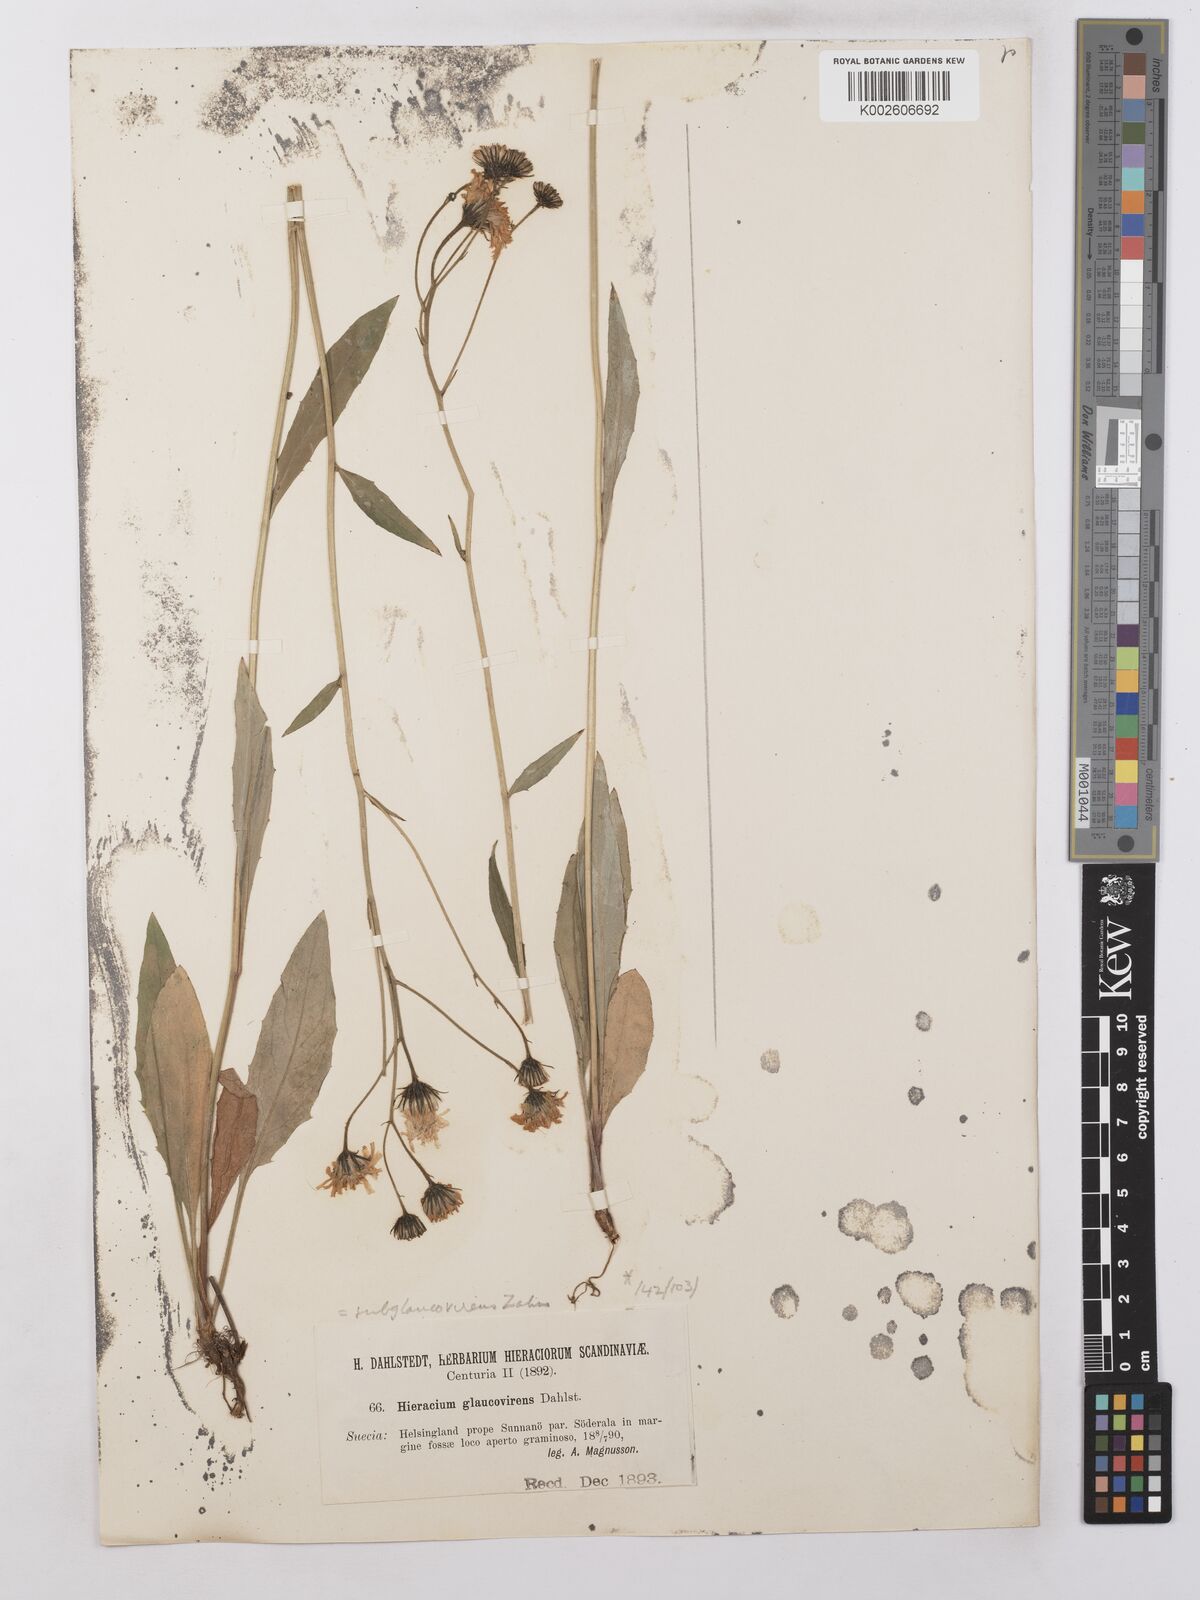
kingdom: Plantae
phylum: Tracheophyta
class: Magnoliopsida
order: Asterales
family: Asteraceae
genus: Hieracium
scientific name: Hieracium lachenalii
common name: Common hawkweed
